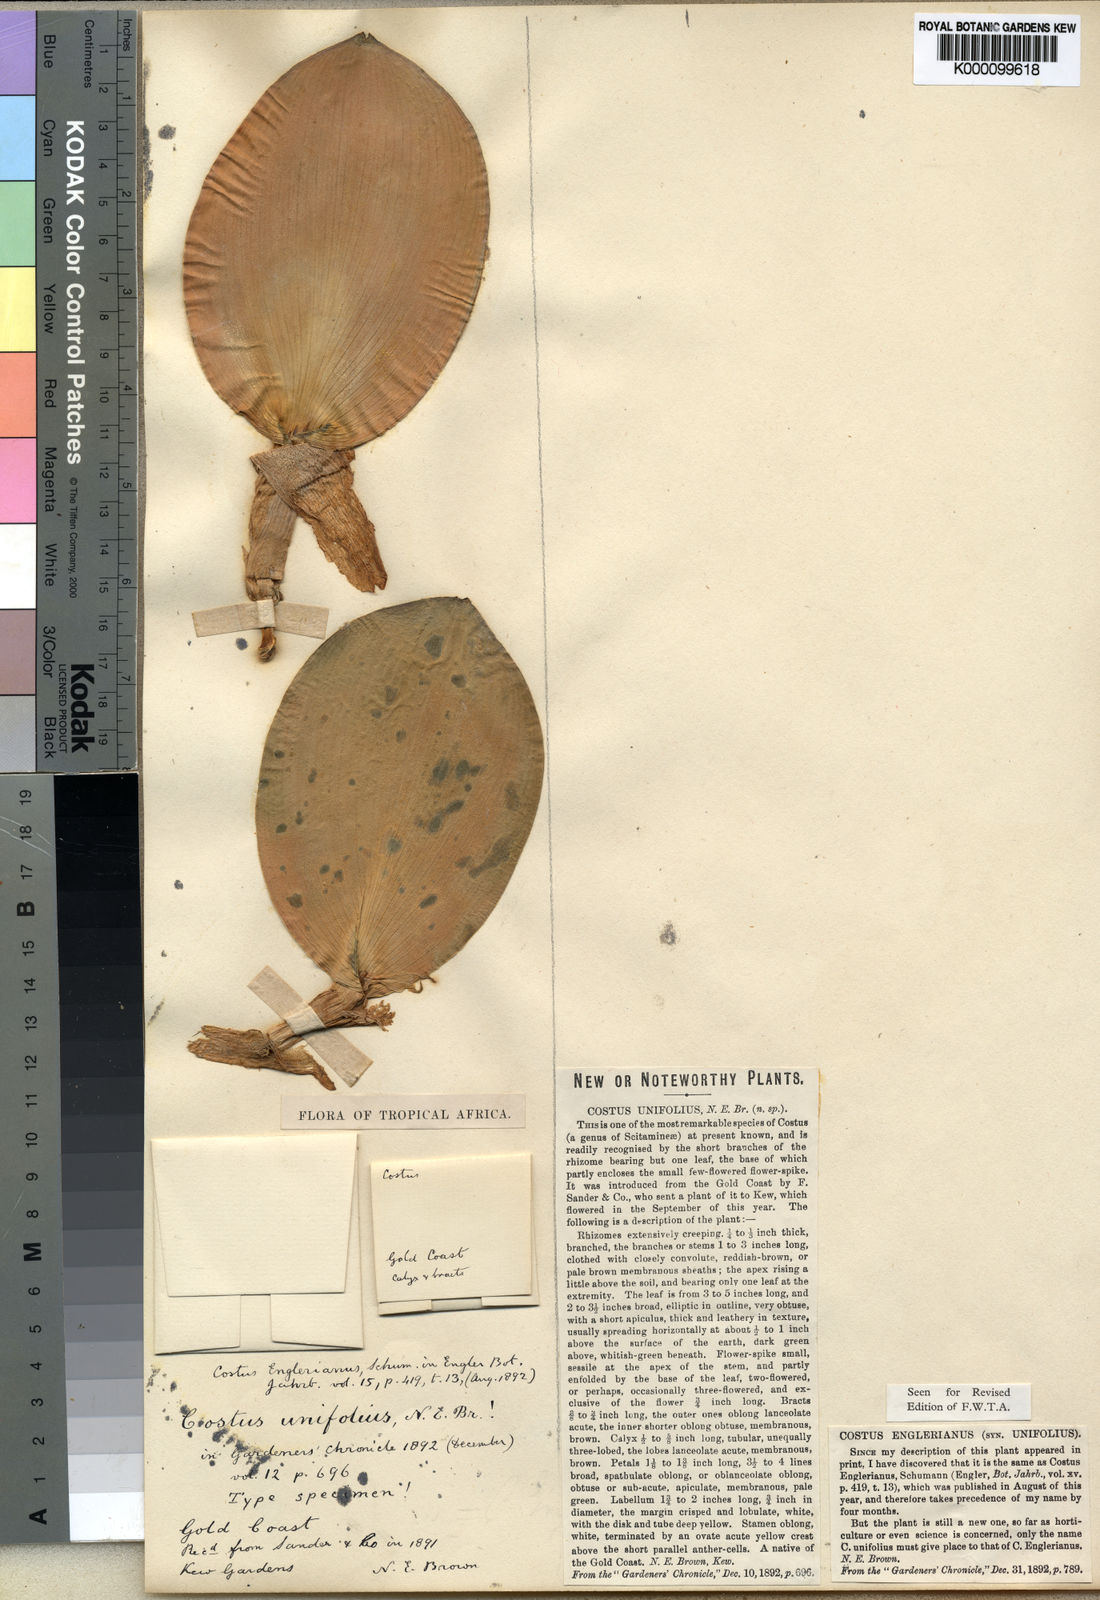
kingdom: Plantae
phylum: Tracheophyta
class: Liliopsida
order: Zingiberales
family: Costaceae
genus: Paracostus
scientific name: Paracostus englerianus
